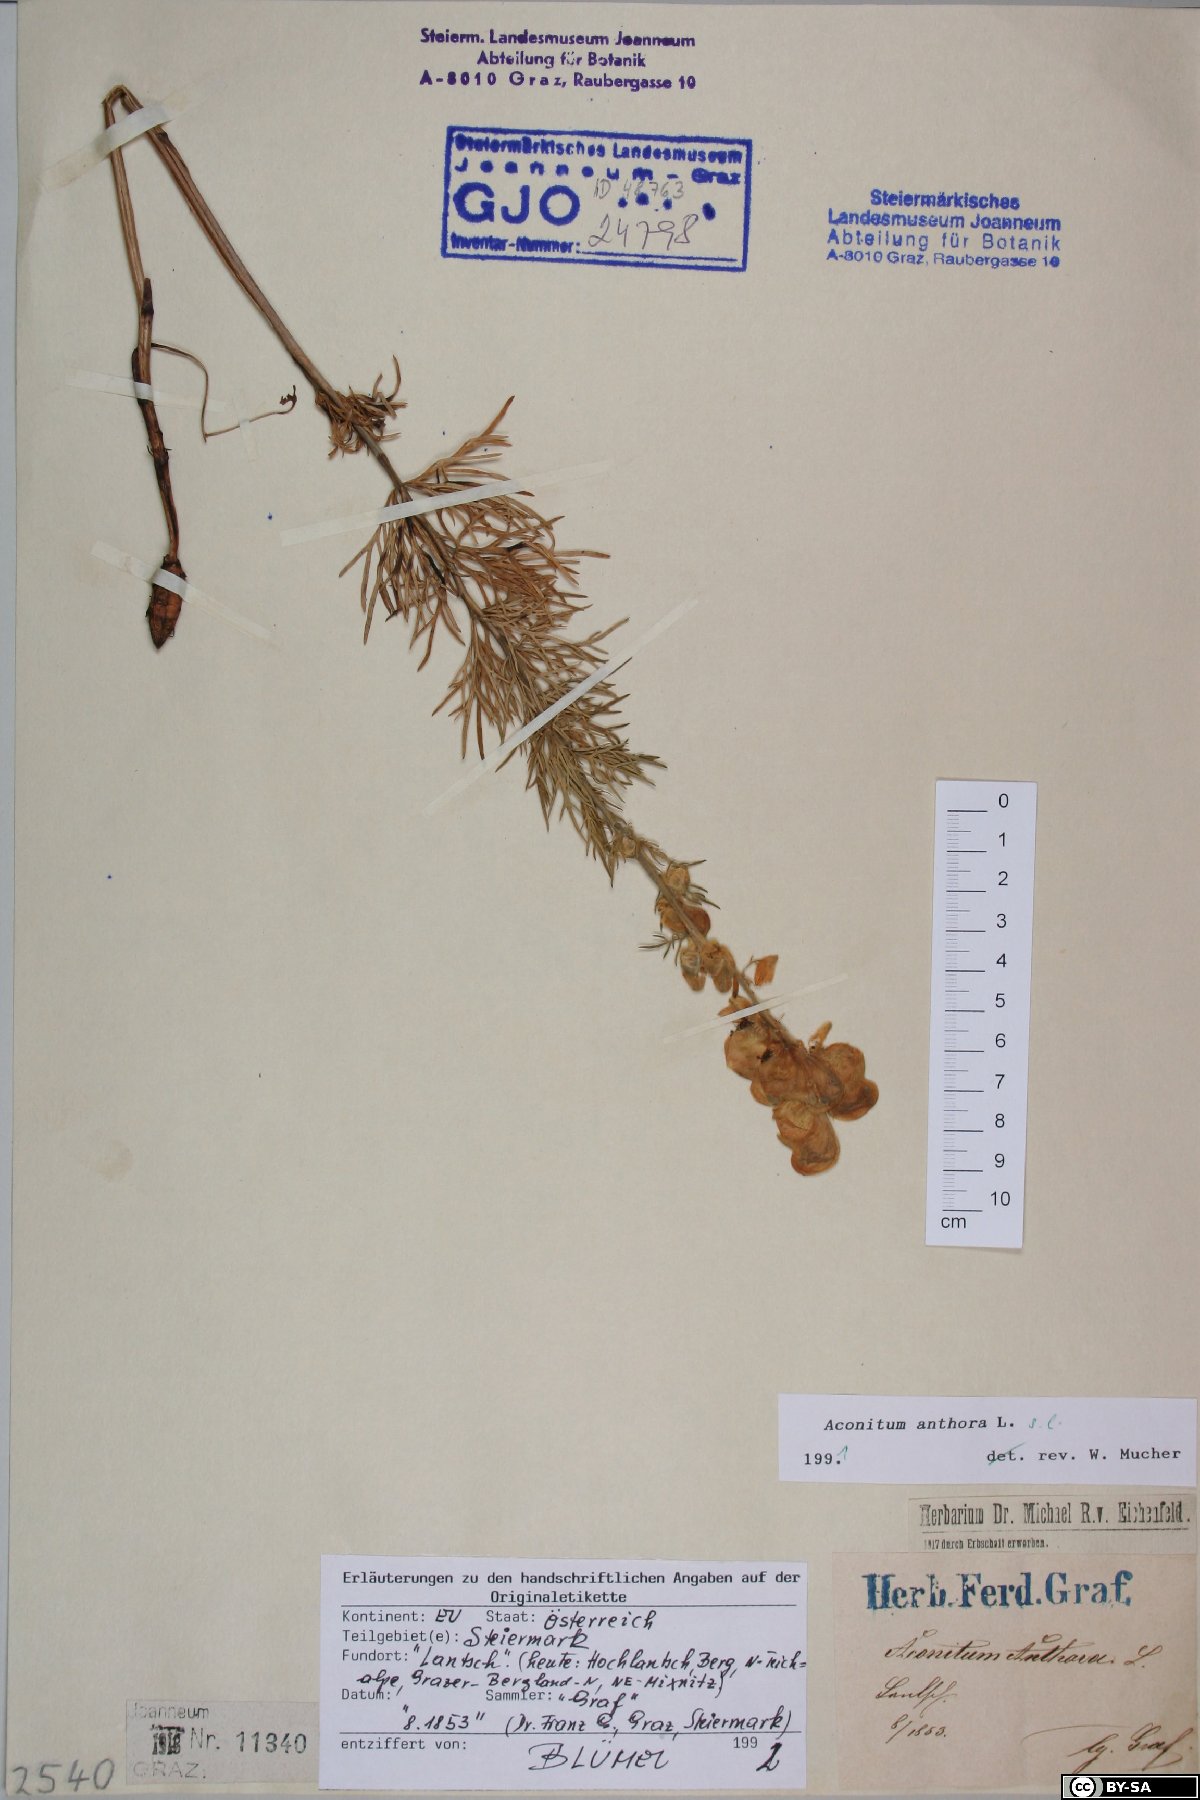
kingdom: Plantae
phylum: Tracheophyta
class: Magnoliopsida
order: Ranunculales
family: Ranunculaceae
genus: Aconitum
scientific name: Aconitum anthora
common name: Yellow monkshood
